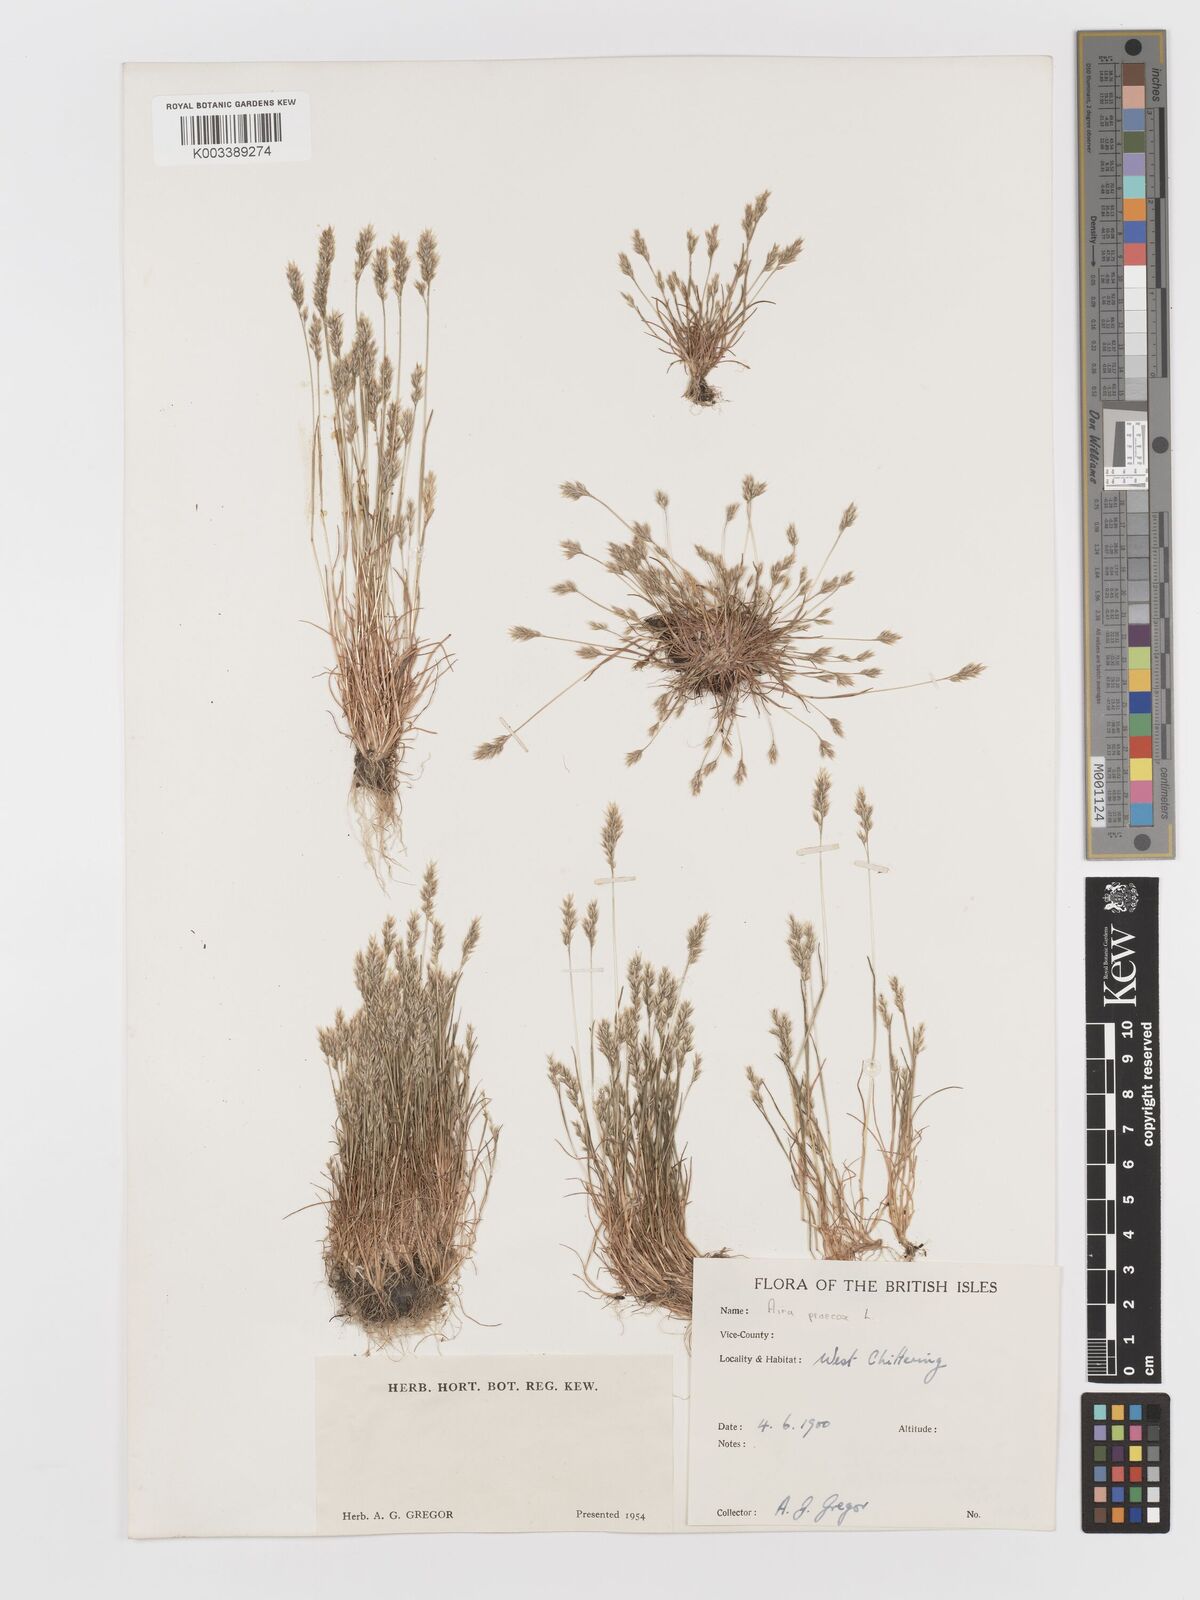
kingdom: Plantae
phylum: Tracheophyta
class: Liliopsida
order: Poales
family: Poaceae
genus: Aira
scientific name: Aira praecox
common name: Early hair-grass
